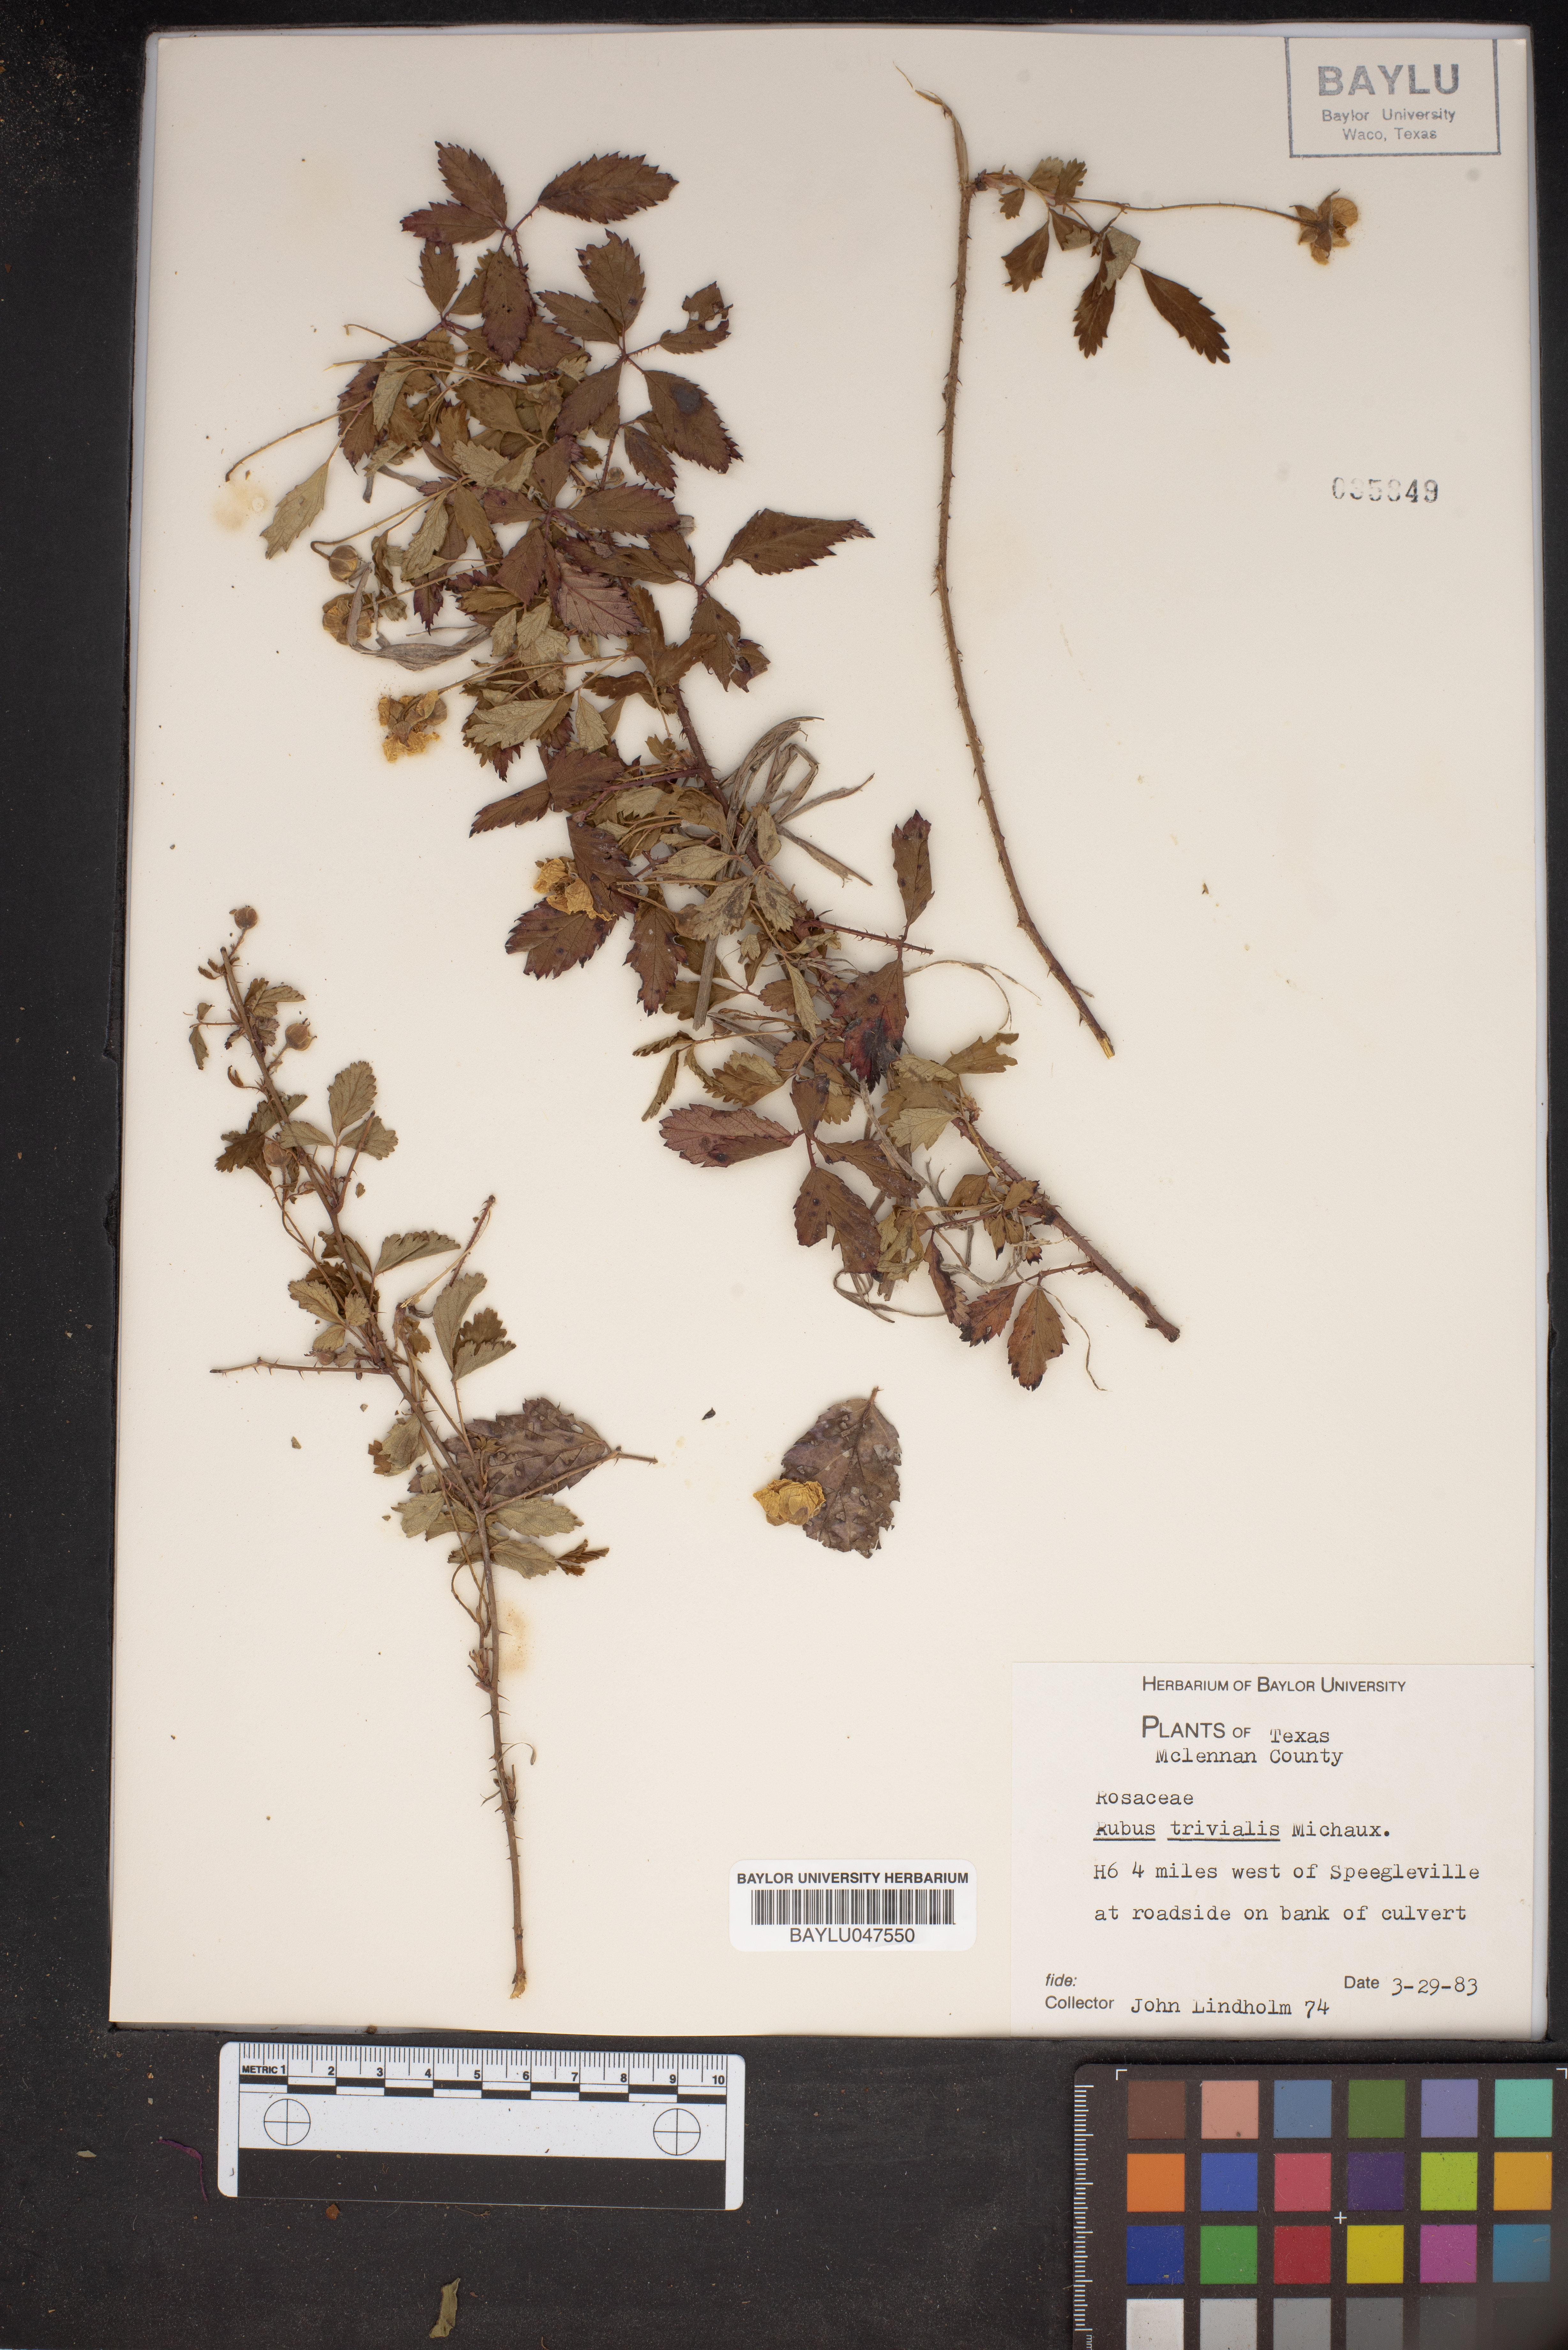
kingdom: Plantae
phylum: Tracheophyta
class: Magnoliopsida
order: Rosales
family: Rosaceae
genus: Rubus
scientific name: Rubus trivialis
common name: Southern dewberry
